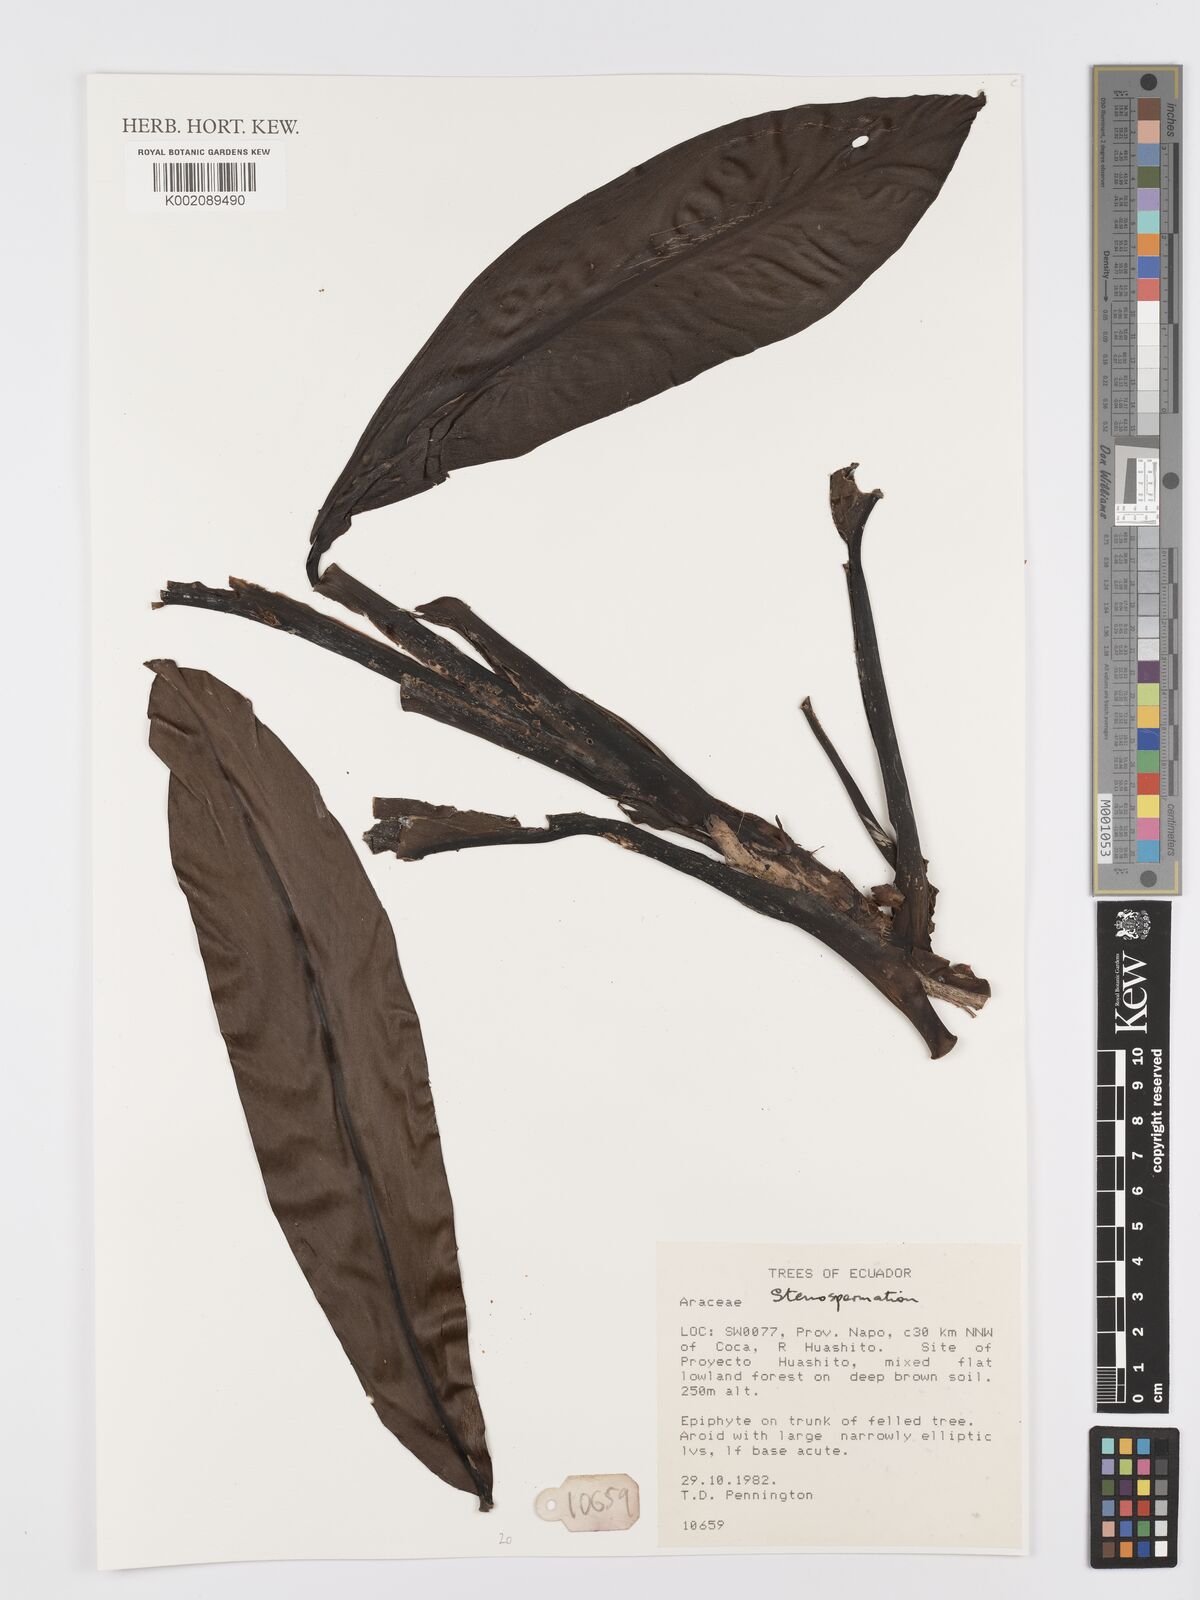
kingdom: Plantae
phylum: Tracheophyta
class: Liliopsida
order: Alismatales
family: Araceae
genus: Stenospermation
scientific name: Stenospermation
